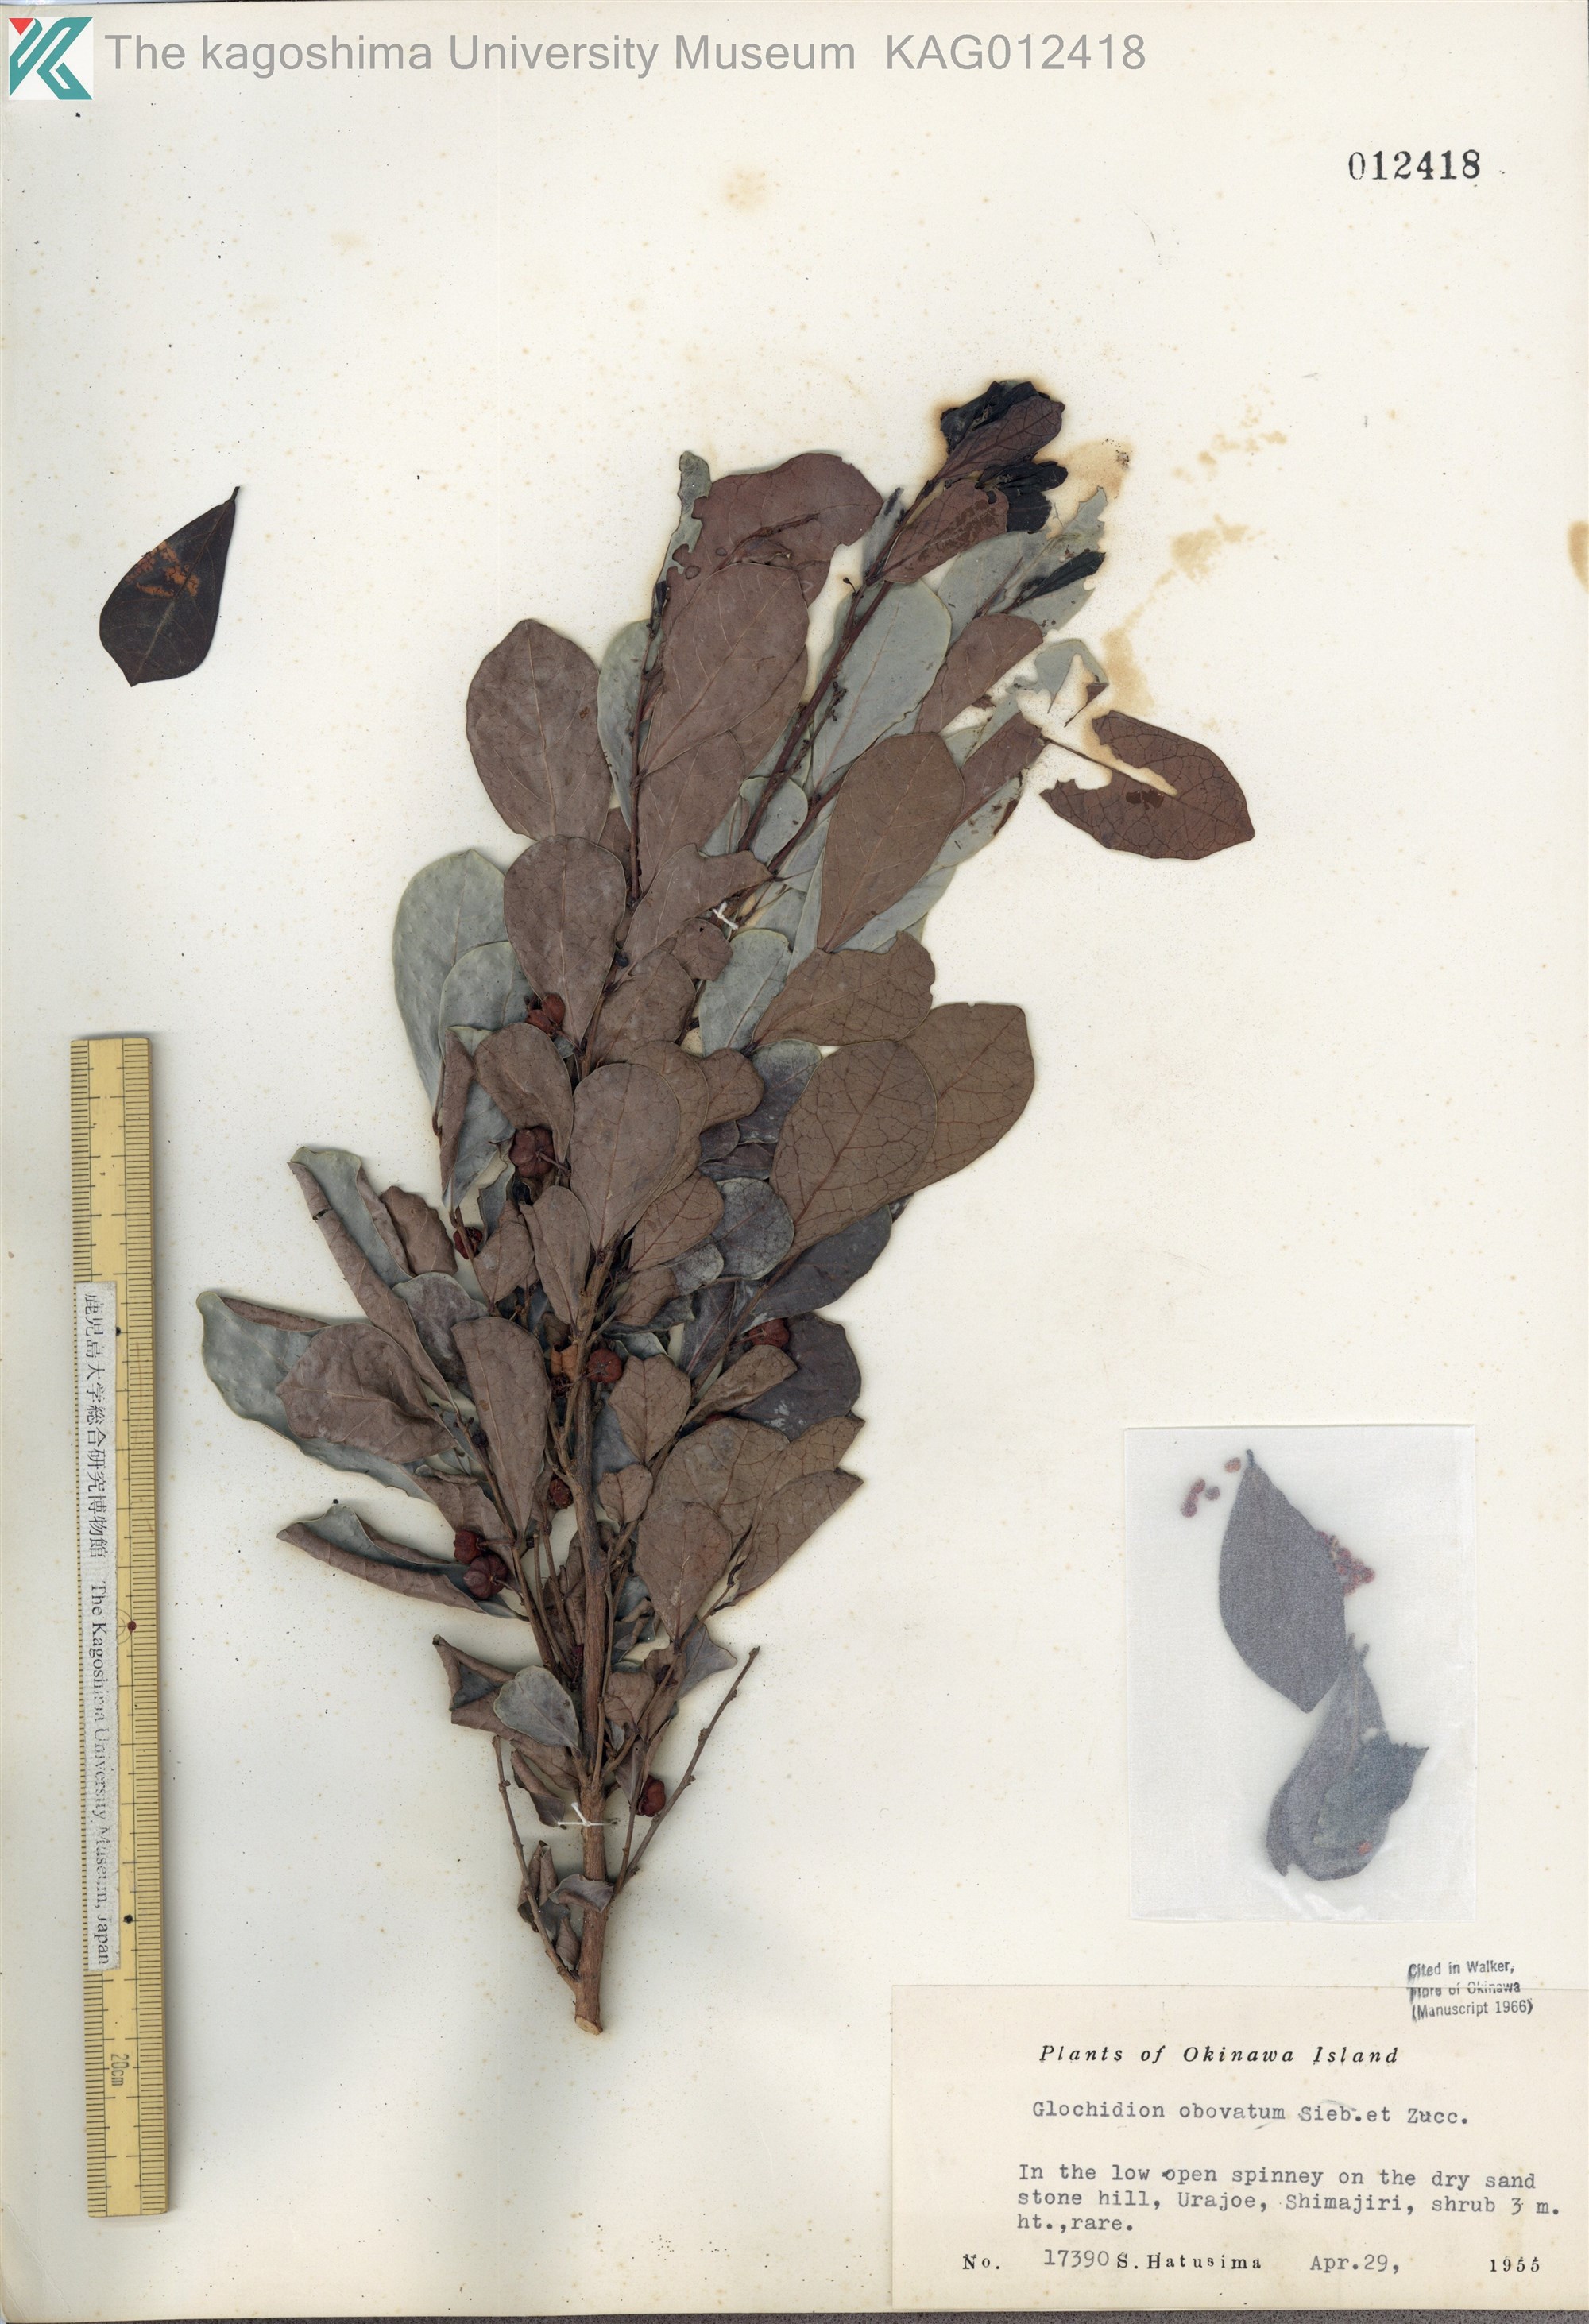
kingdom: Plantae
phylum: Tracheophyta
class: Magnoliopsida
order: Malpighiales
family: Phyllanthaceae
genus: Glochidion
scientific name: Glochidion obovatum
